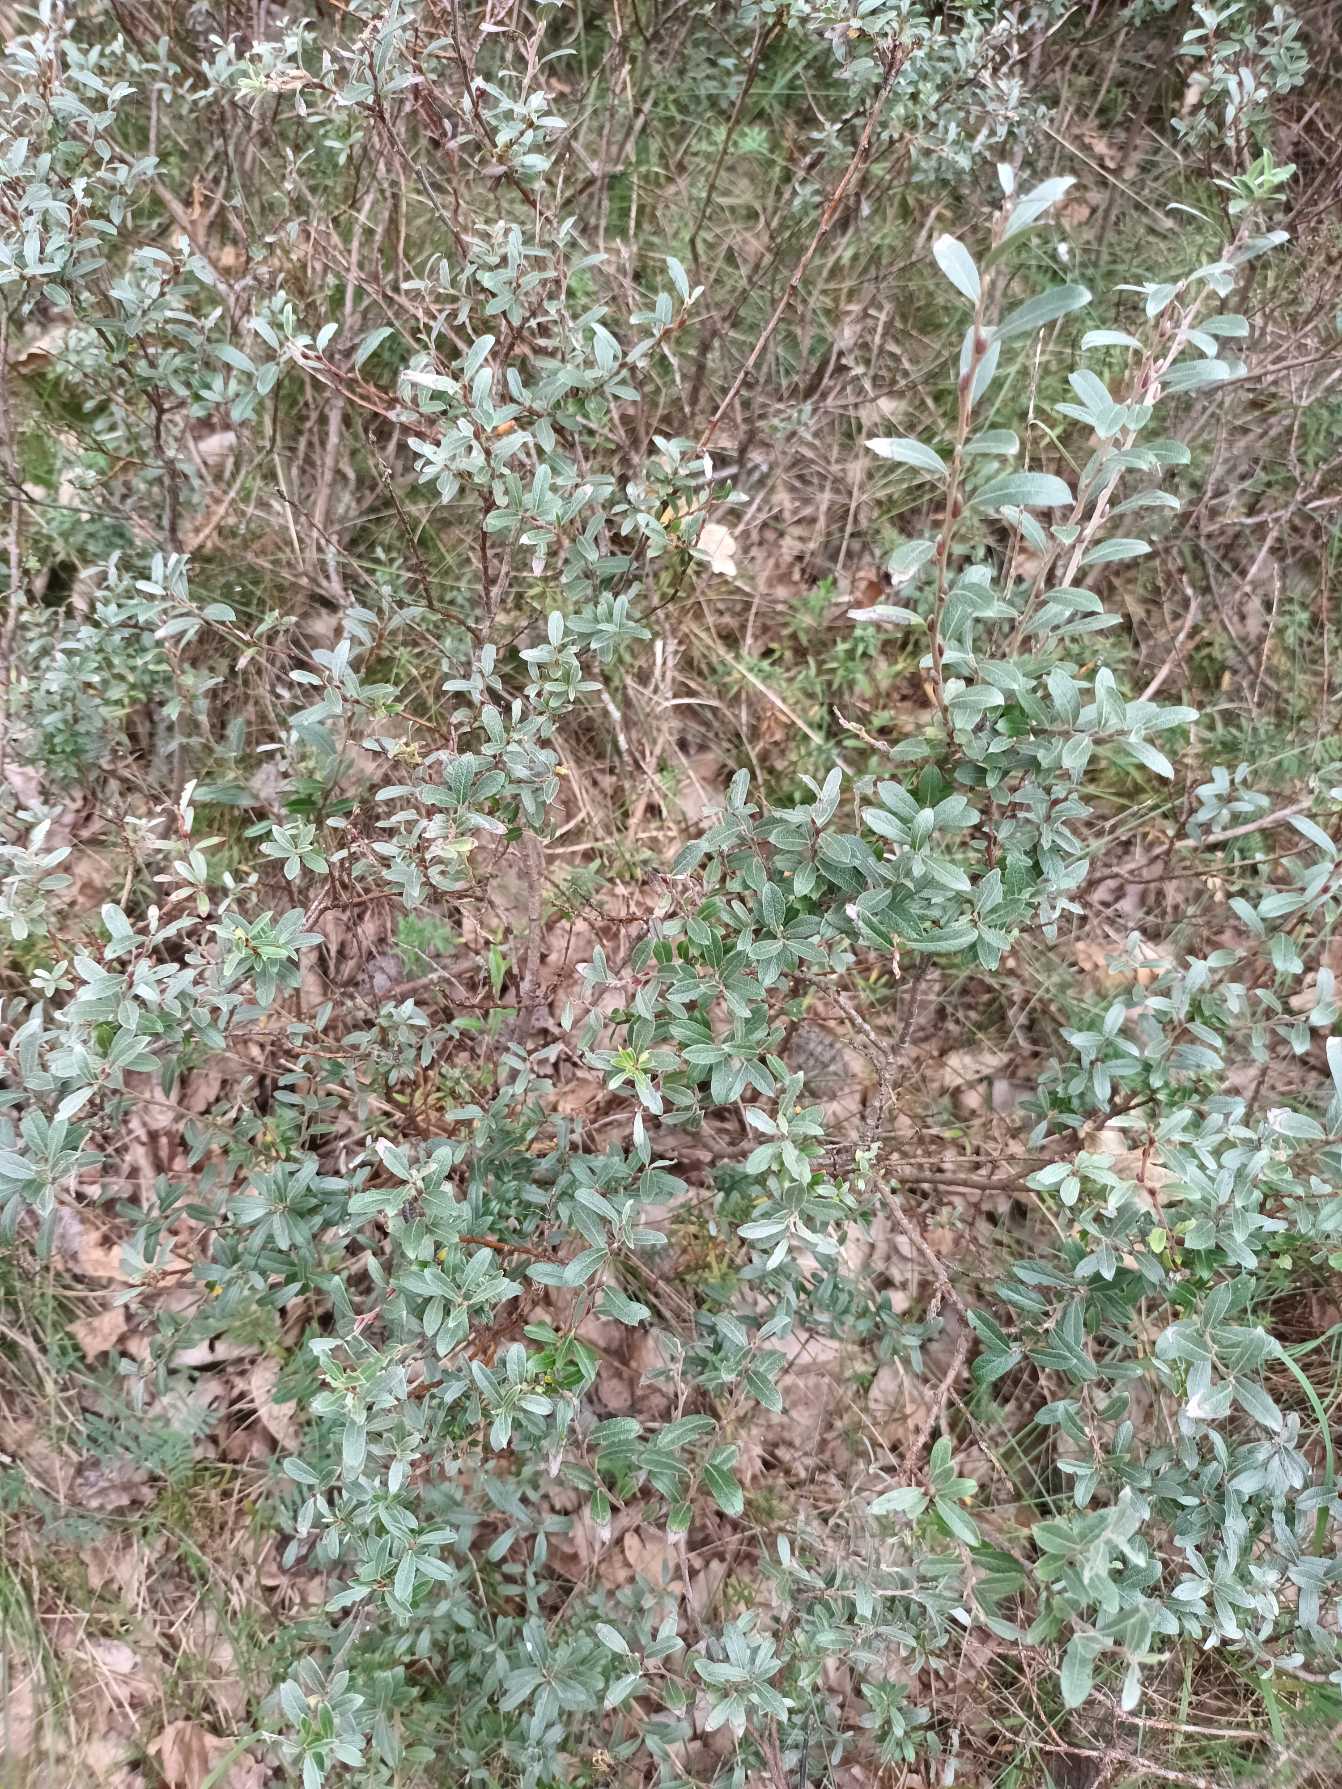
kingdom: Plantae
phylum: Tracheophyta
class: Magnoliopsida
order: Malpighiales
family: Salicaceae
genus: Salix
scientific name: Salix repens
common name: Krybende pil
